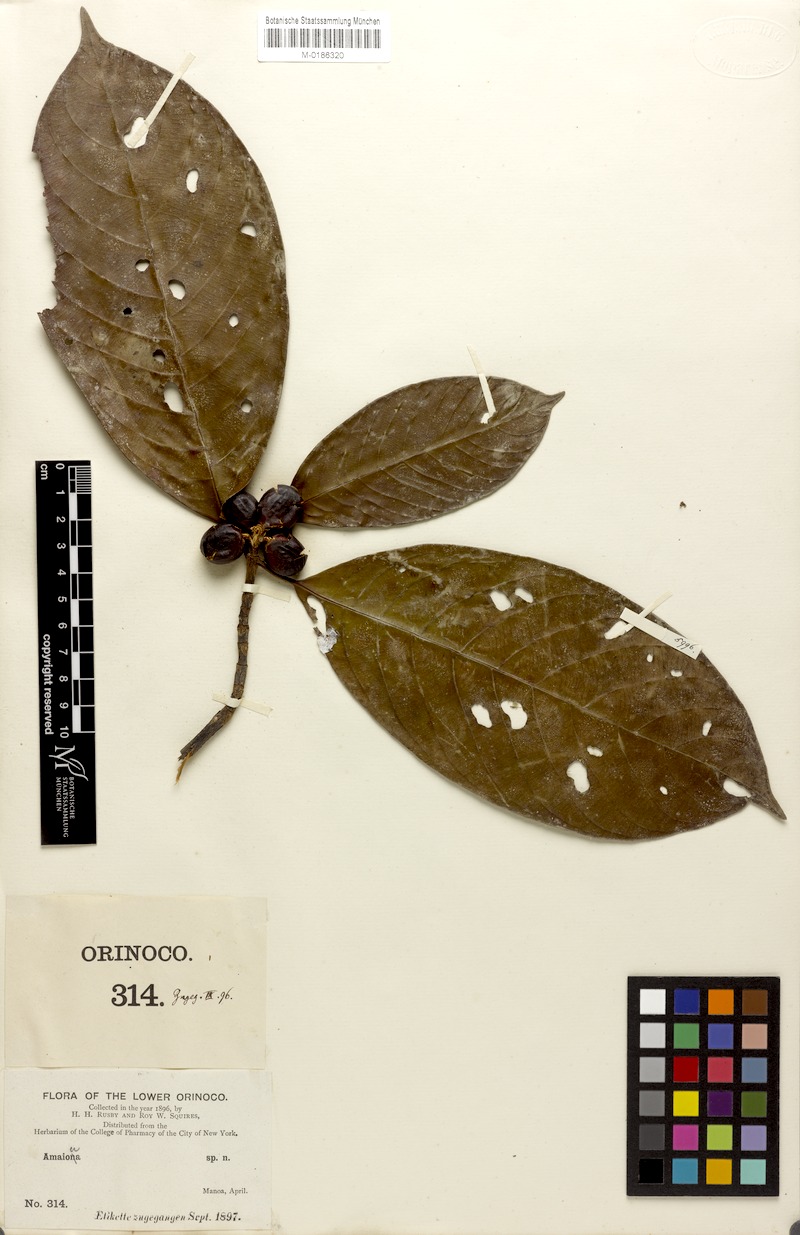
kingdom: Plantae
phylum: Tracheophyta
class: Magnoliopsida
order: Gentianales
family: Rubiaceae
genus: Amaioua
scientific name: Amaioua guianensis
